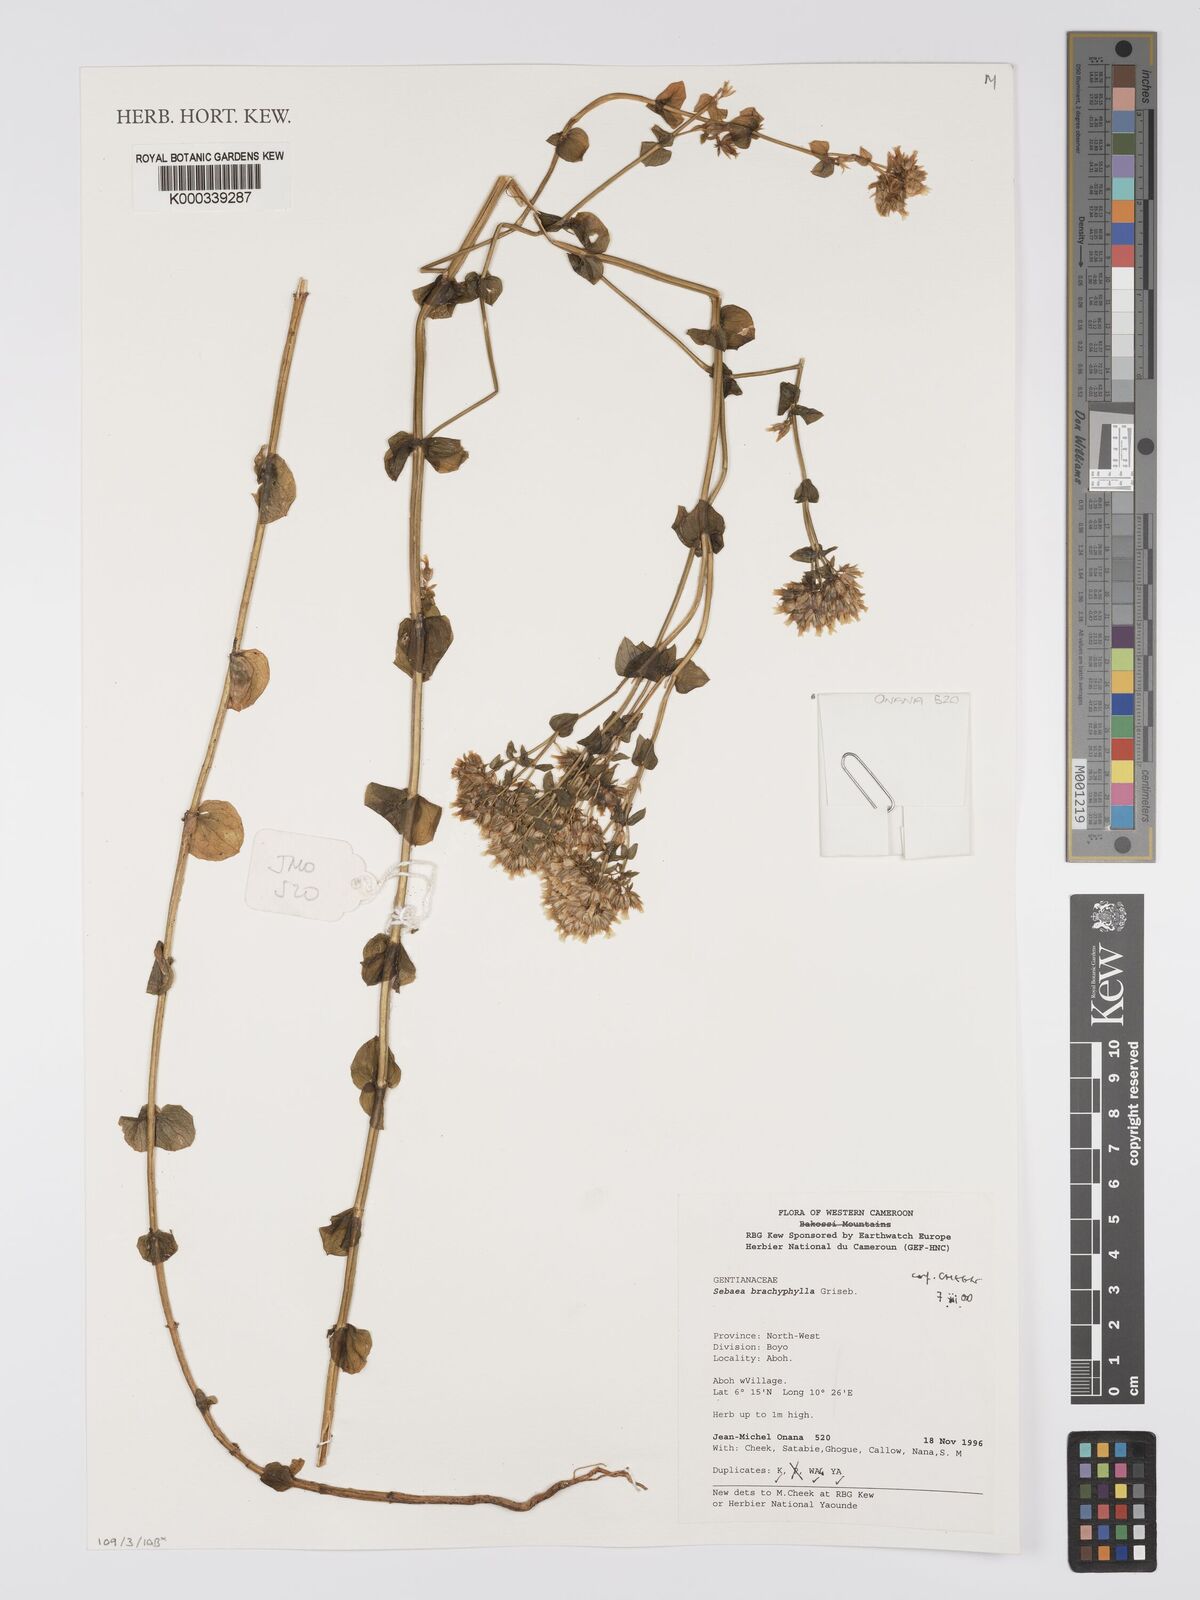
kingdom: Plantae
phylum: Tracheophyta
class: Magnoliopsida
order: Gentianales
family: Gentianaceae
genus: Sebaea
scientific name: Sebaea brachyphylla
